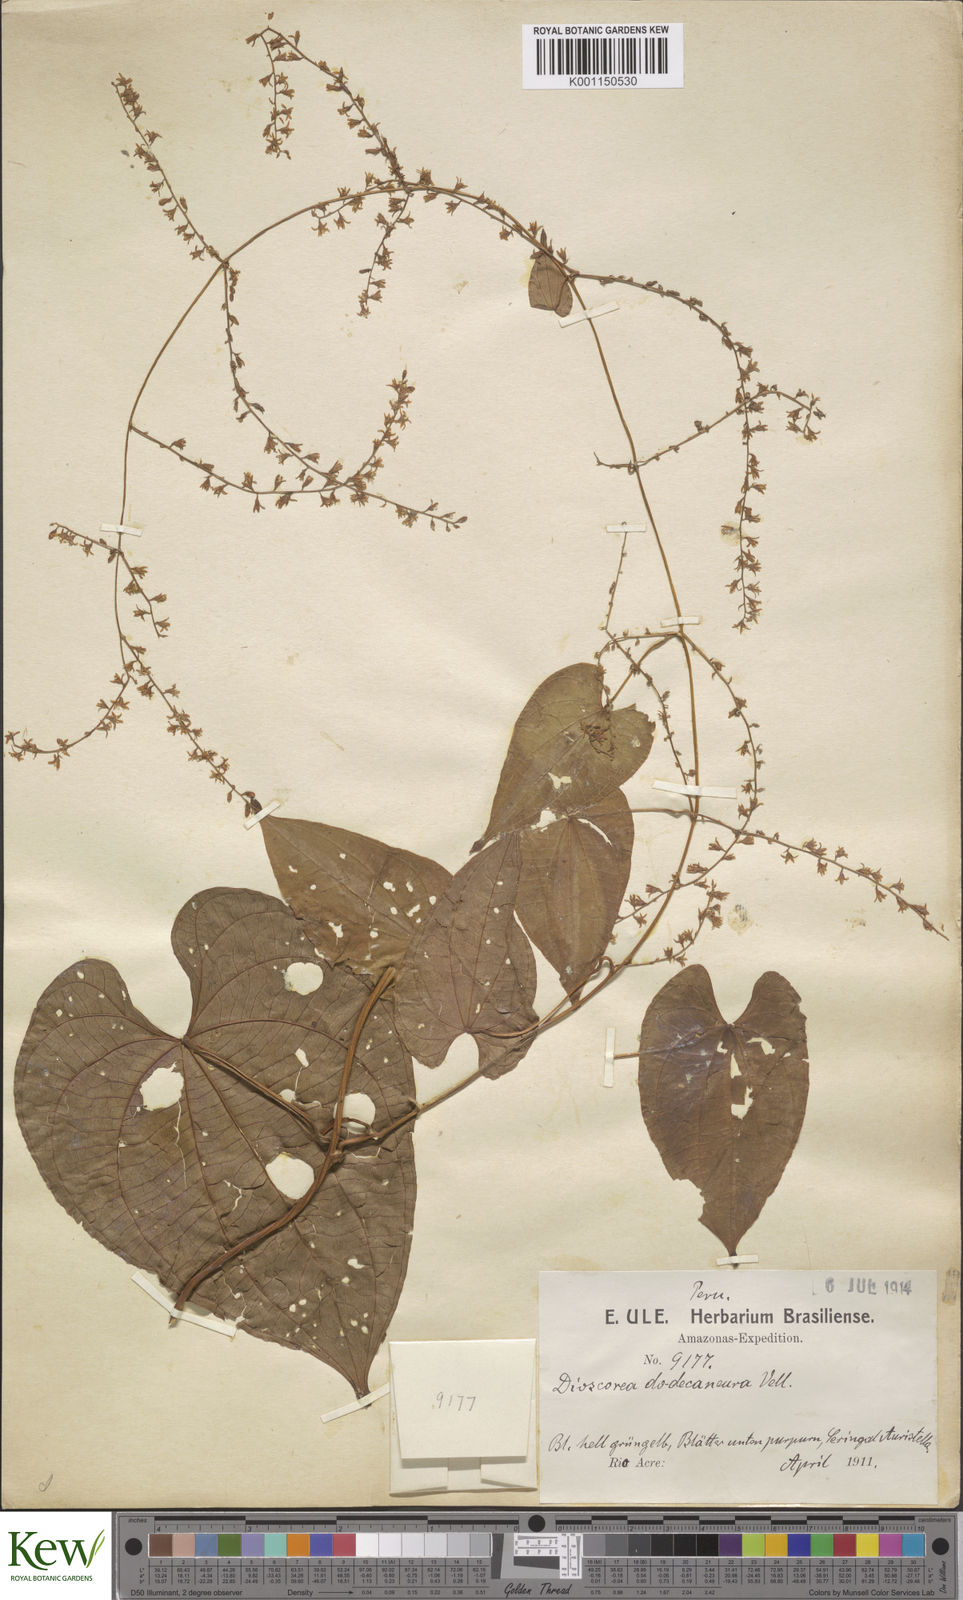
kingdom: Plantae
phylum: Tracheophyta
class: Liliopsida
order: Dioscoreales
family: Dioscoreaceae
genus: Dioscorea
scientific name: Dioscorea dodecaneura
